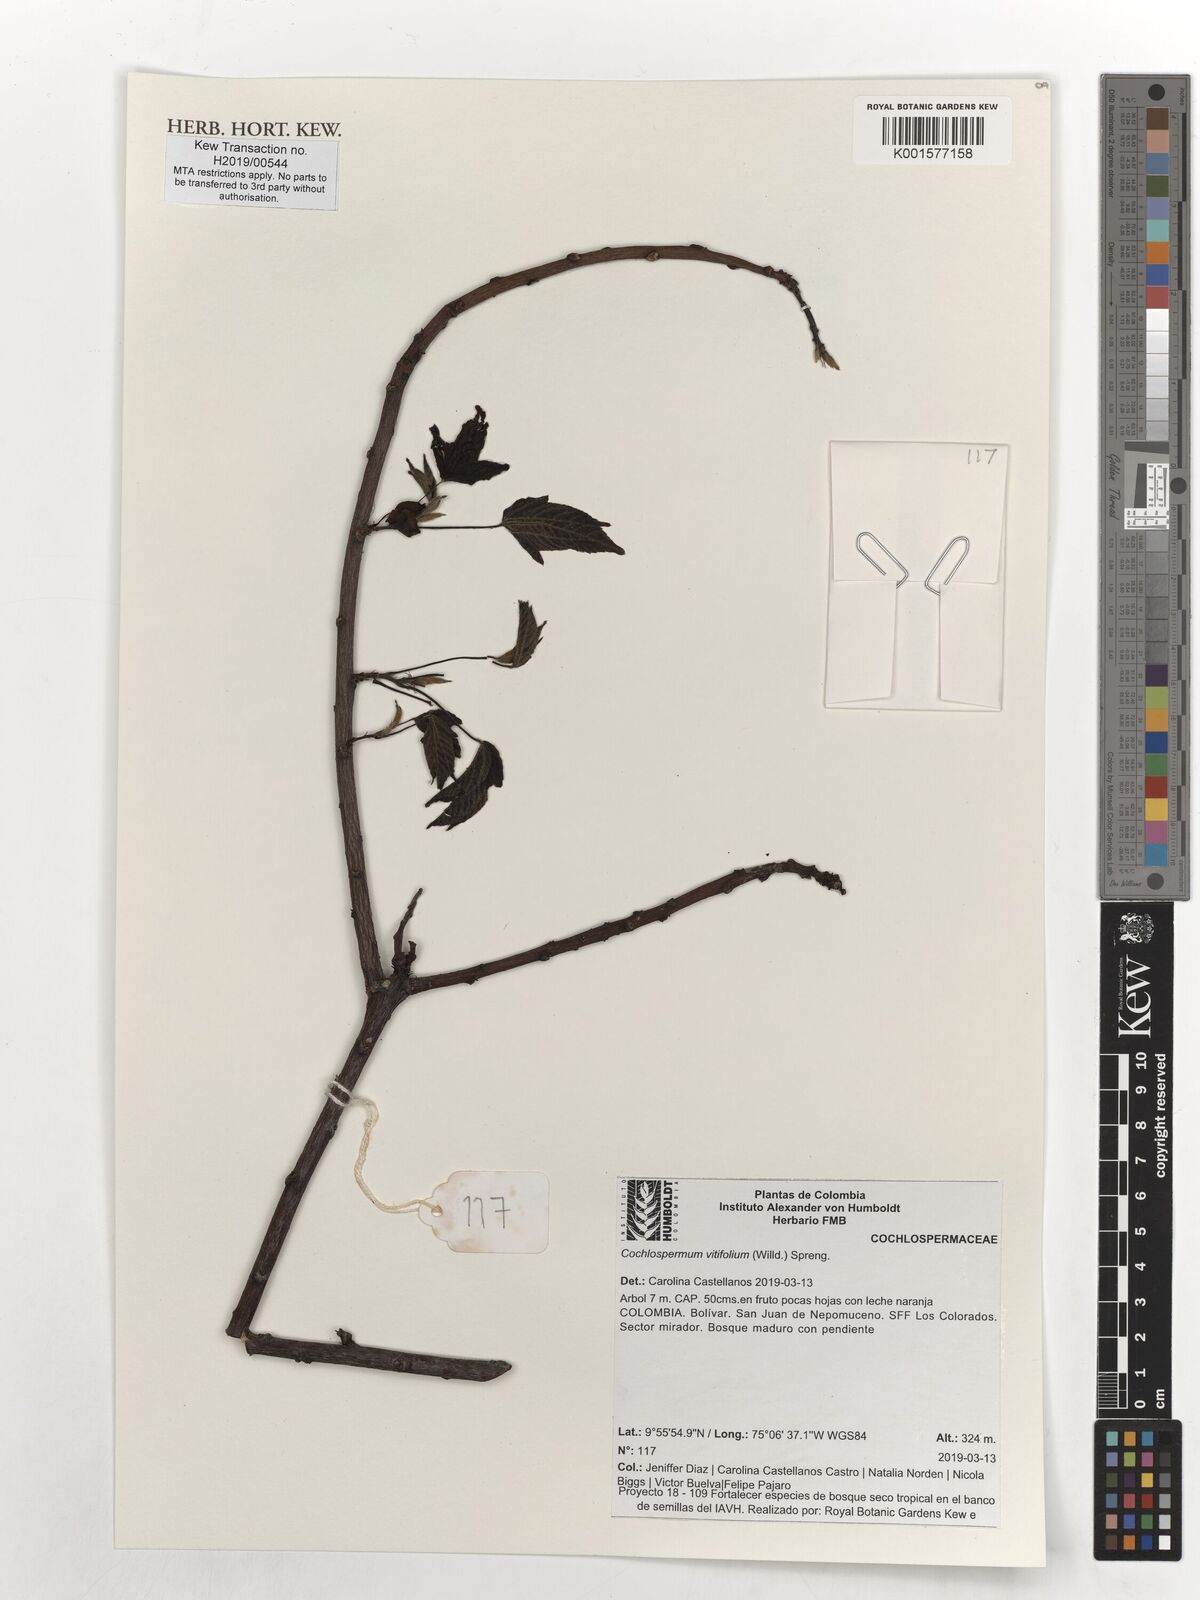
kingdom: Plantae
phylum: Tracheophyta
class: Magnoliopsida
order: Malvales
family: Cochlospermaceae
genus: Cochlospermum
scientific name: Cochlospermum vitifolium
